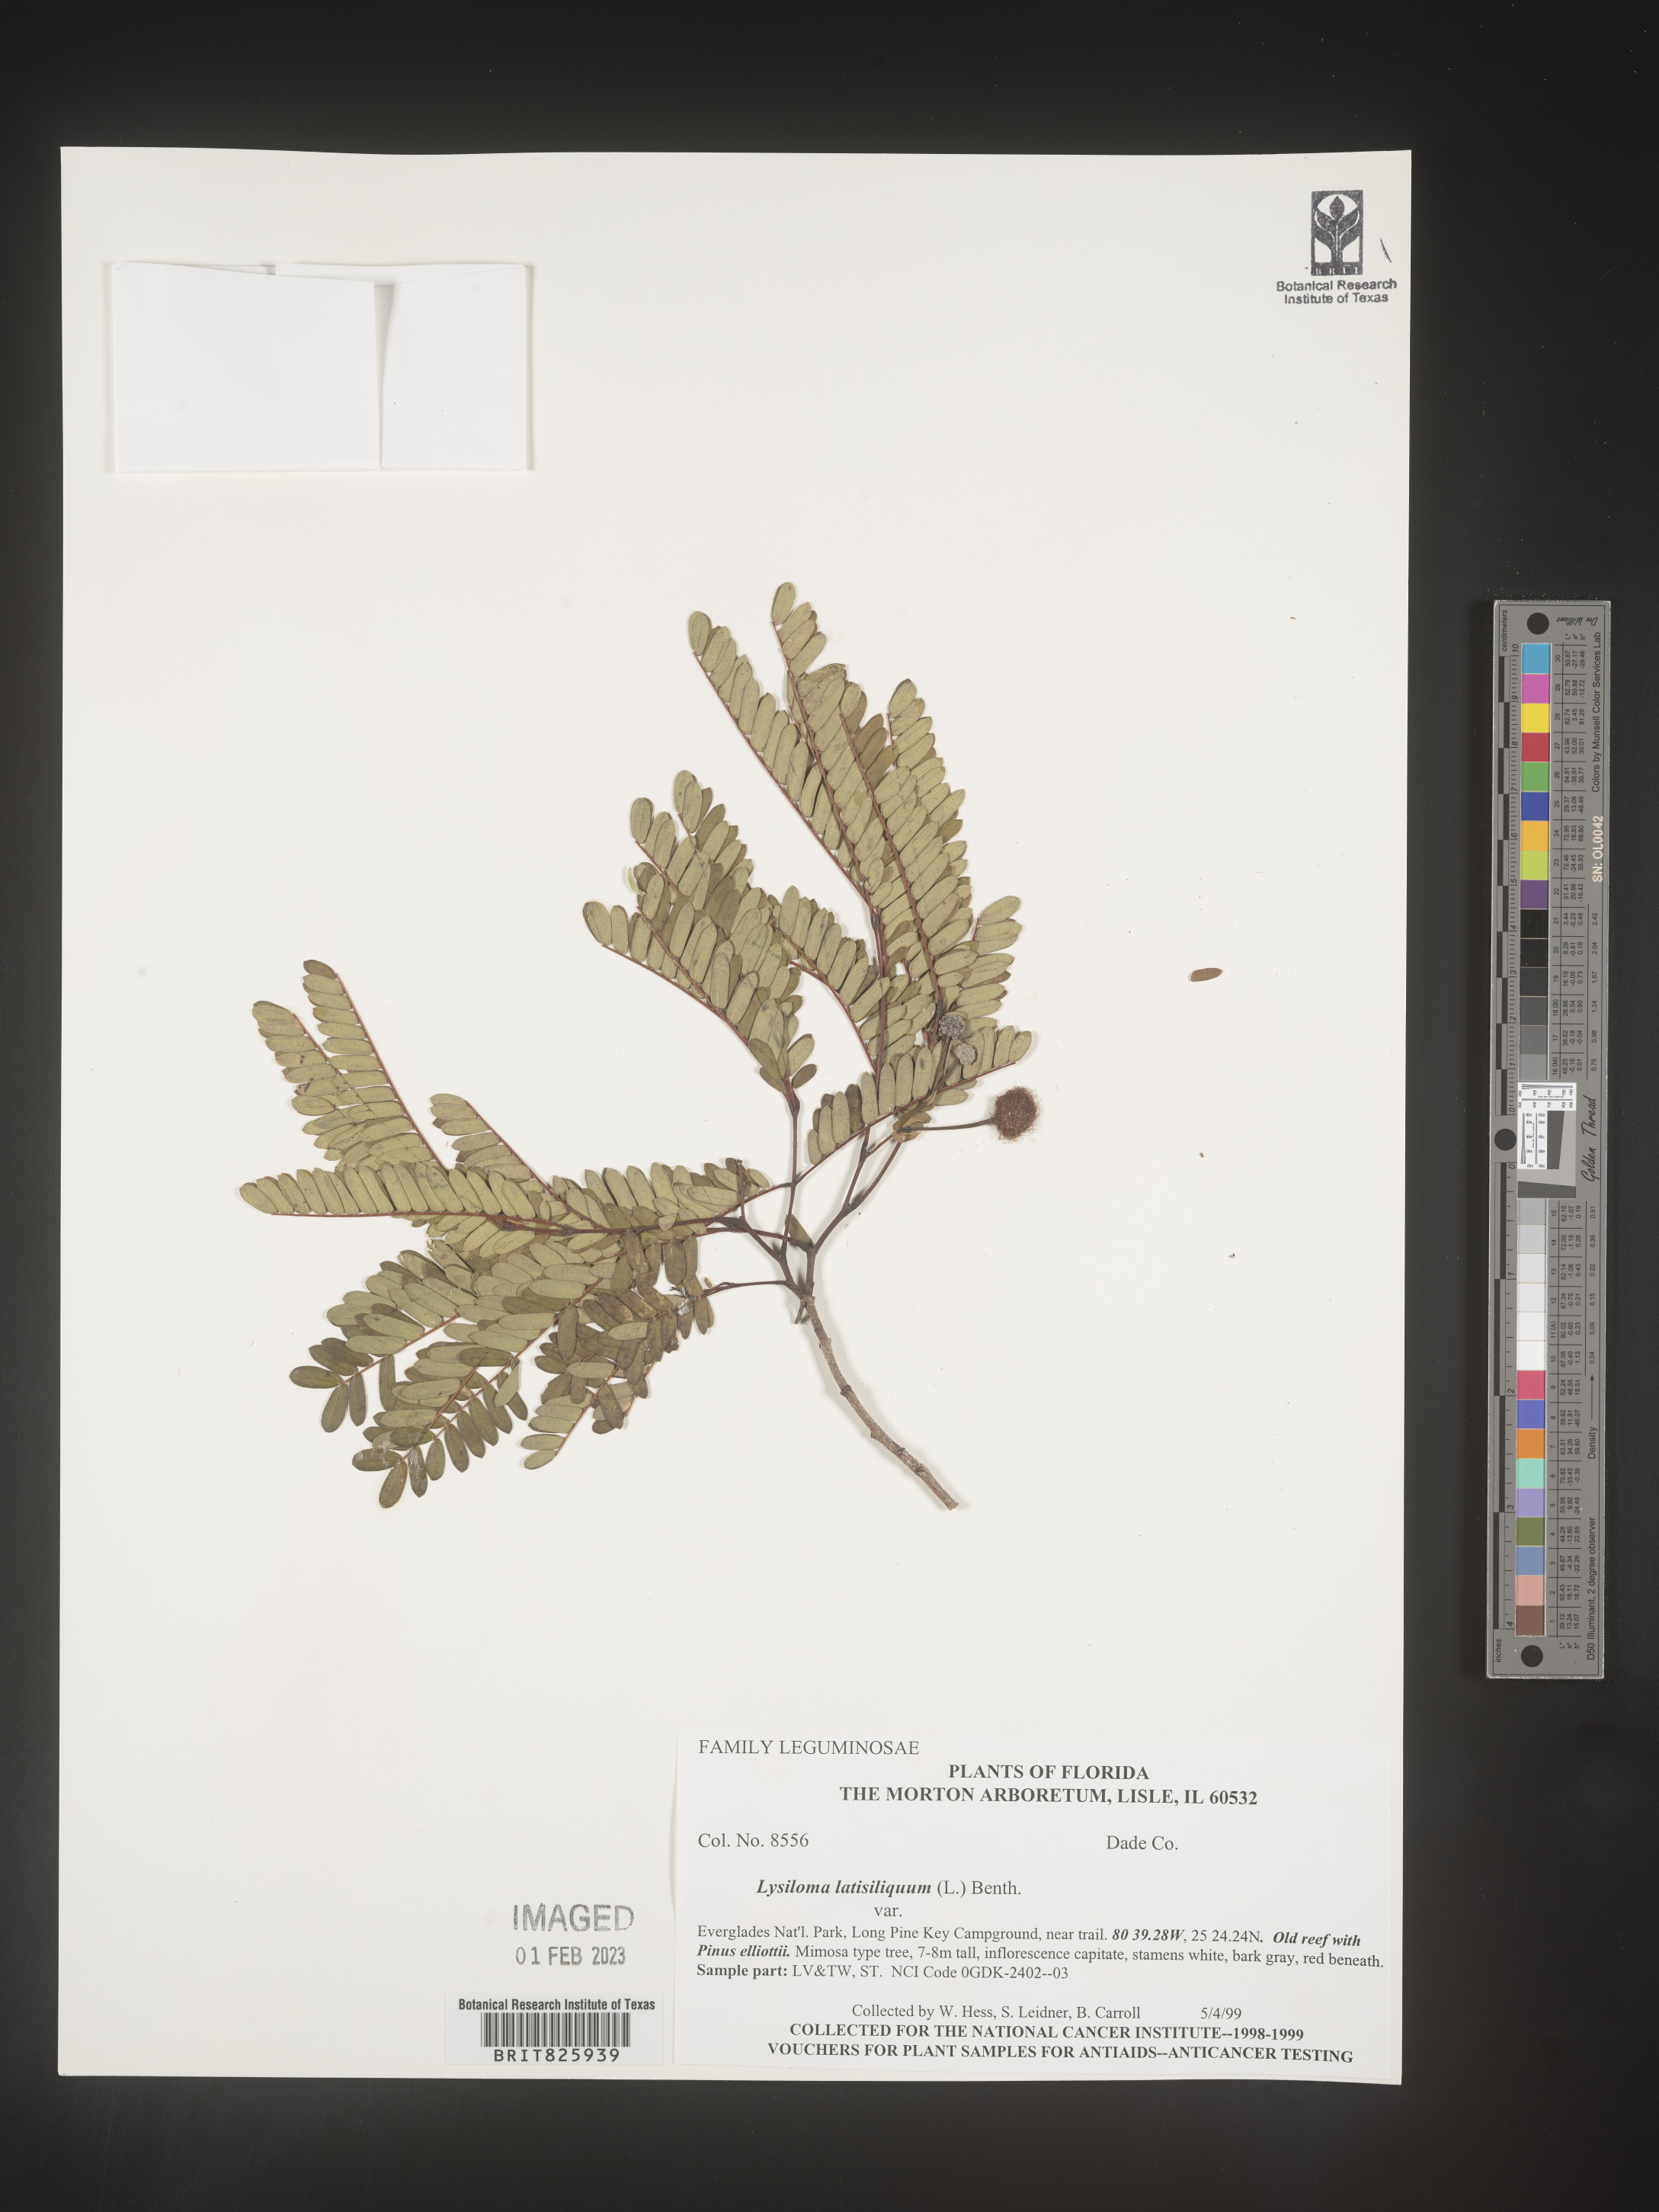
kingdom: Plantae
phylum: Tracheophyta
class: Magnoliopsida
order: Fabales
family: Fabaceae
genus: Lysiloma
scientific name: Lysiloma
